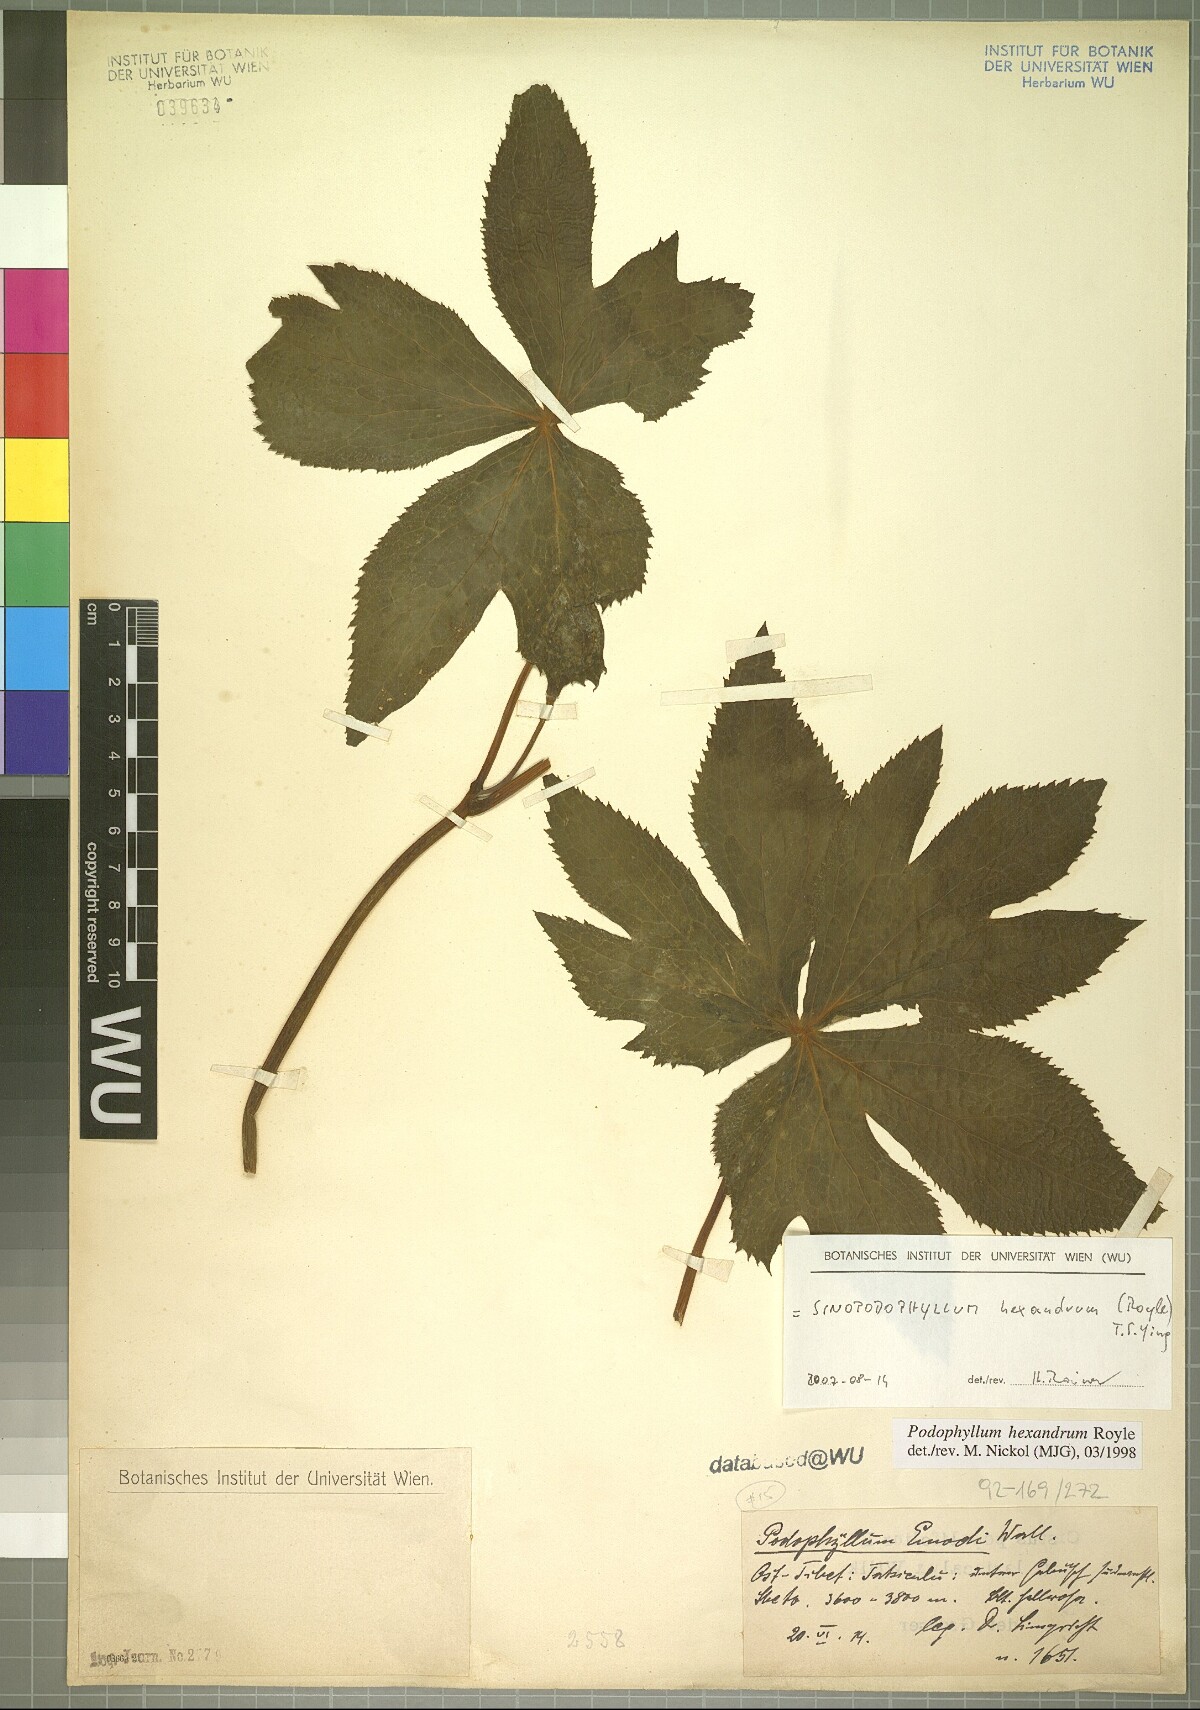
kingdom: Plantae
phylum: Tracheophyta
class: Magnoliopsida
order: Ranunculales
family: Berberidaceae
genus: Sinopodophyllum
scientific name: Sinopodophyllum hexandrum
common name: Himalayan may-apple
